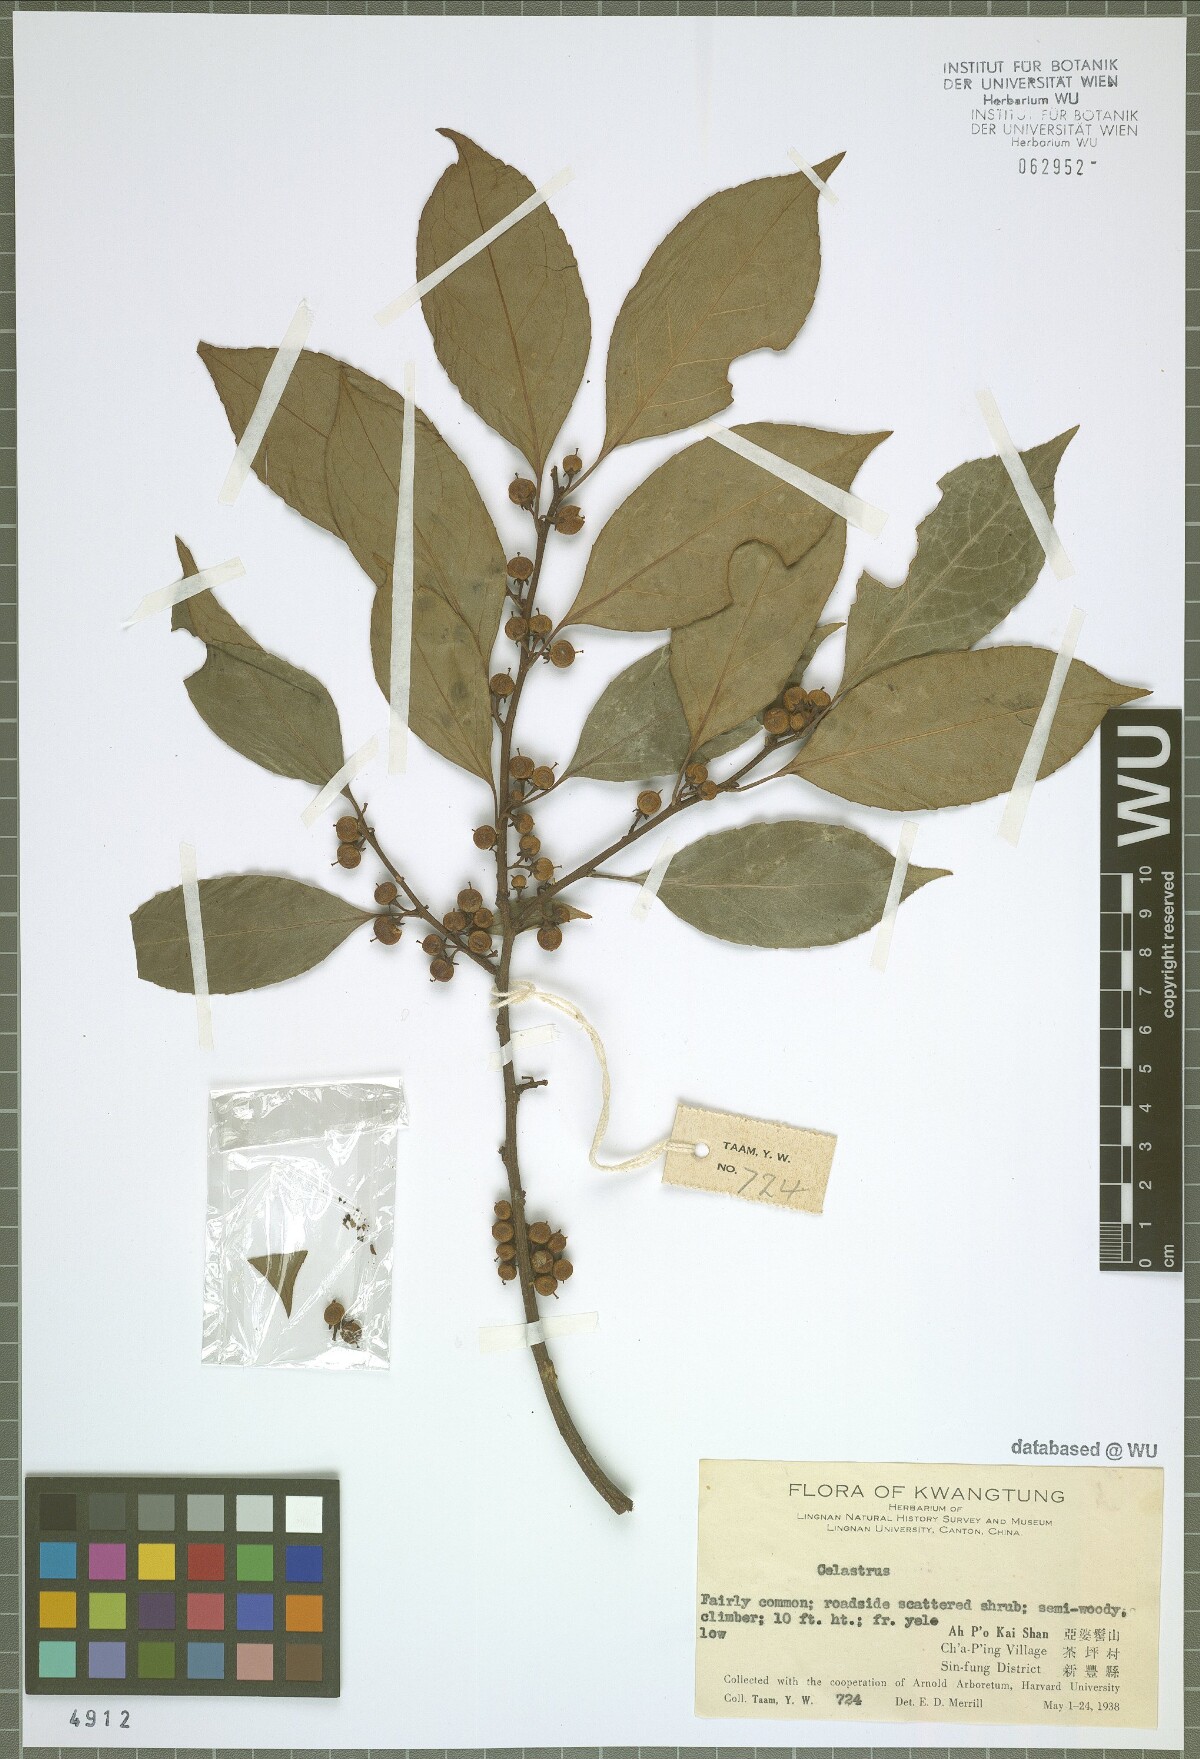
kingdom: Plantae
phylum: Tracheophyta
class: Magnoliopsida
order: Celastrales
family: Celastraceae
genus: Celastrus
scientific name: Celastrus
